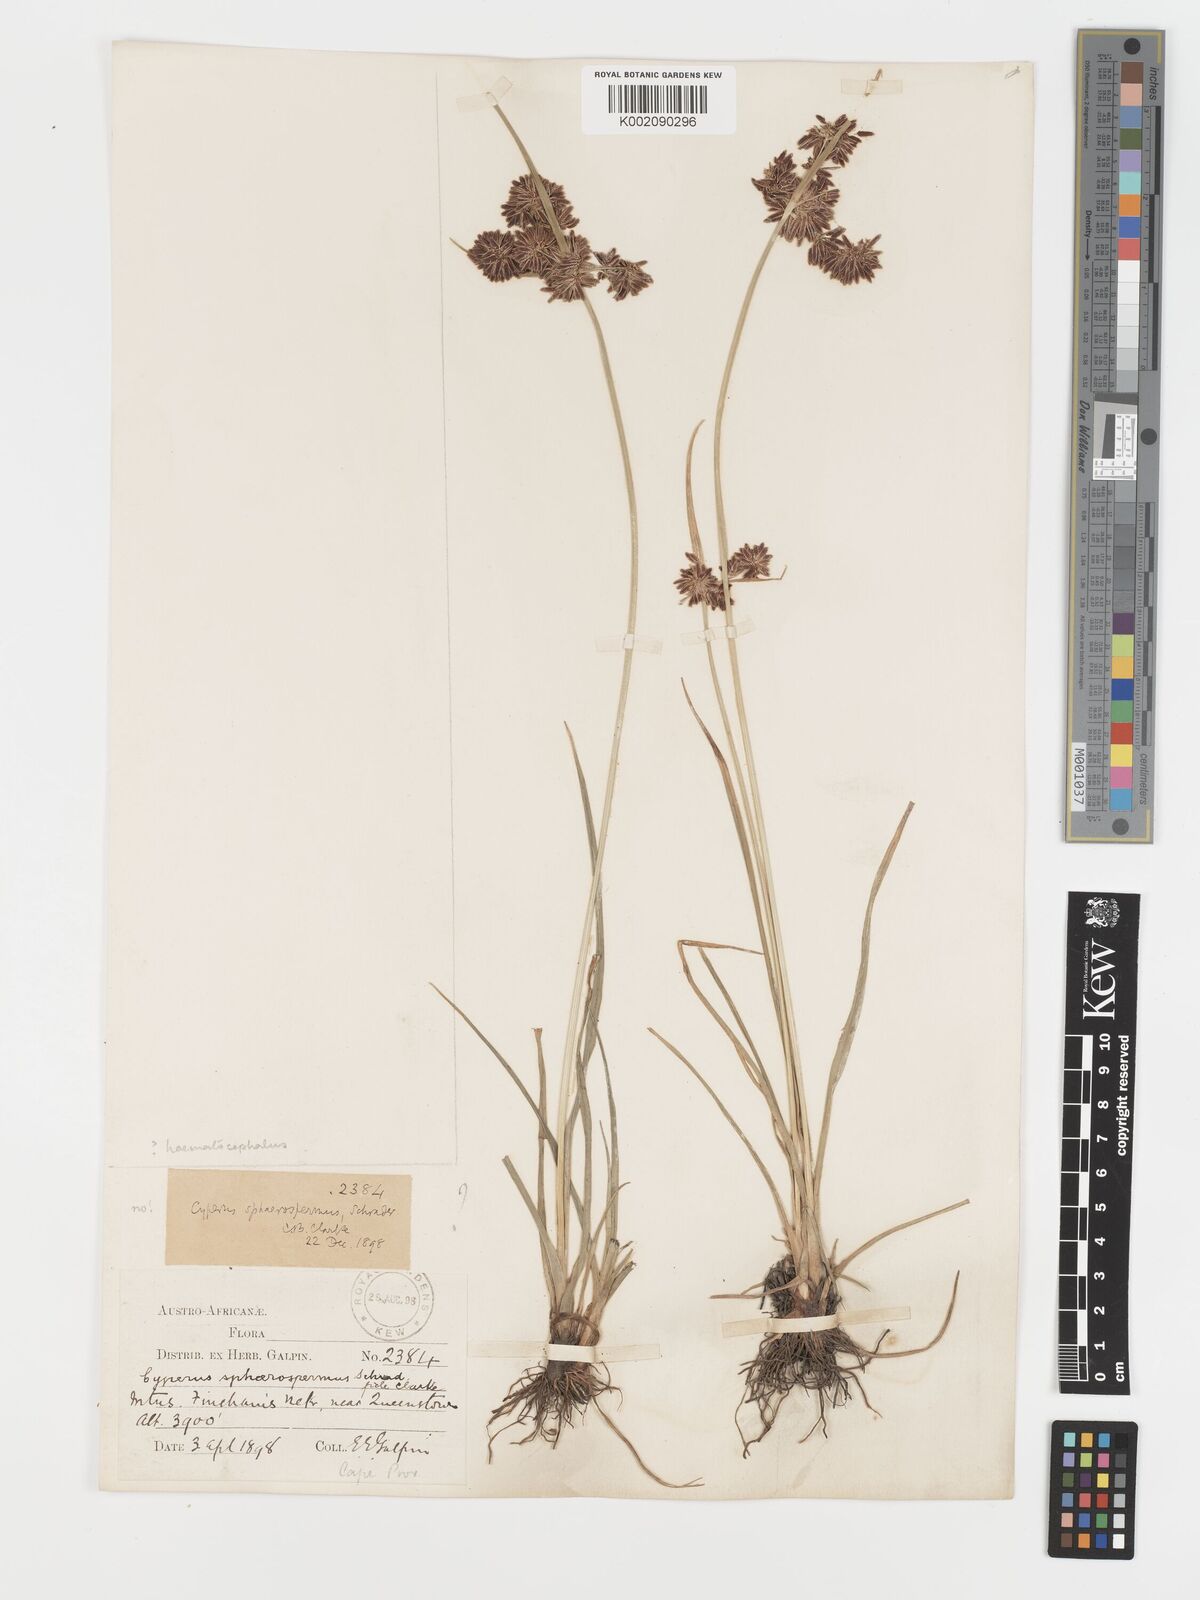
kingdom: Plantae
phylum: Tracheophyta
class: Liliopsida
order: Poales
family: Cyperaceae
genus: Cyperus
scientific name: Cyperus haematocephalus
